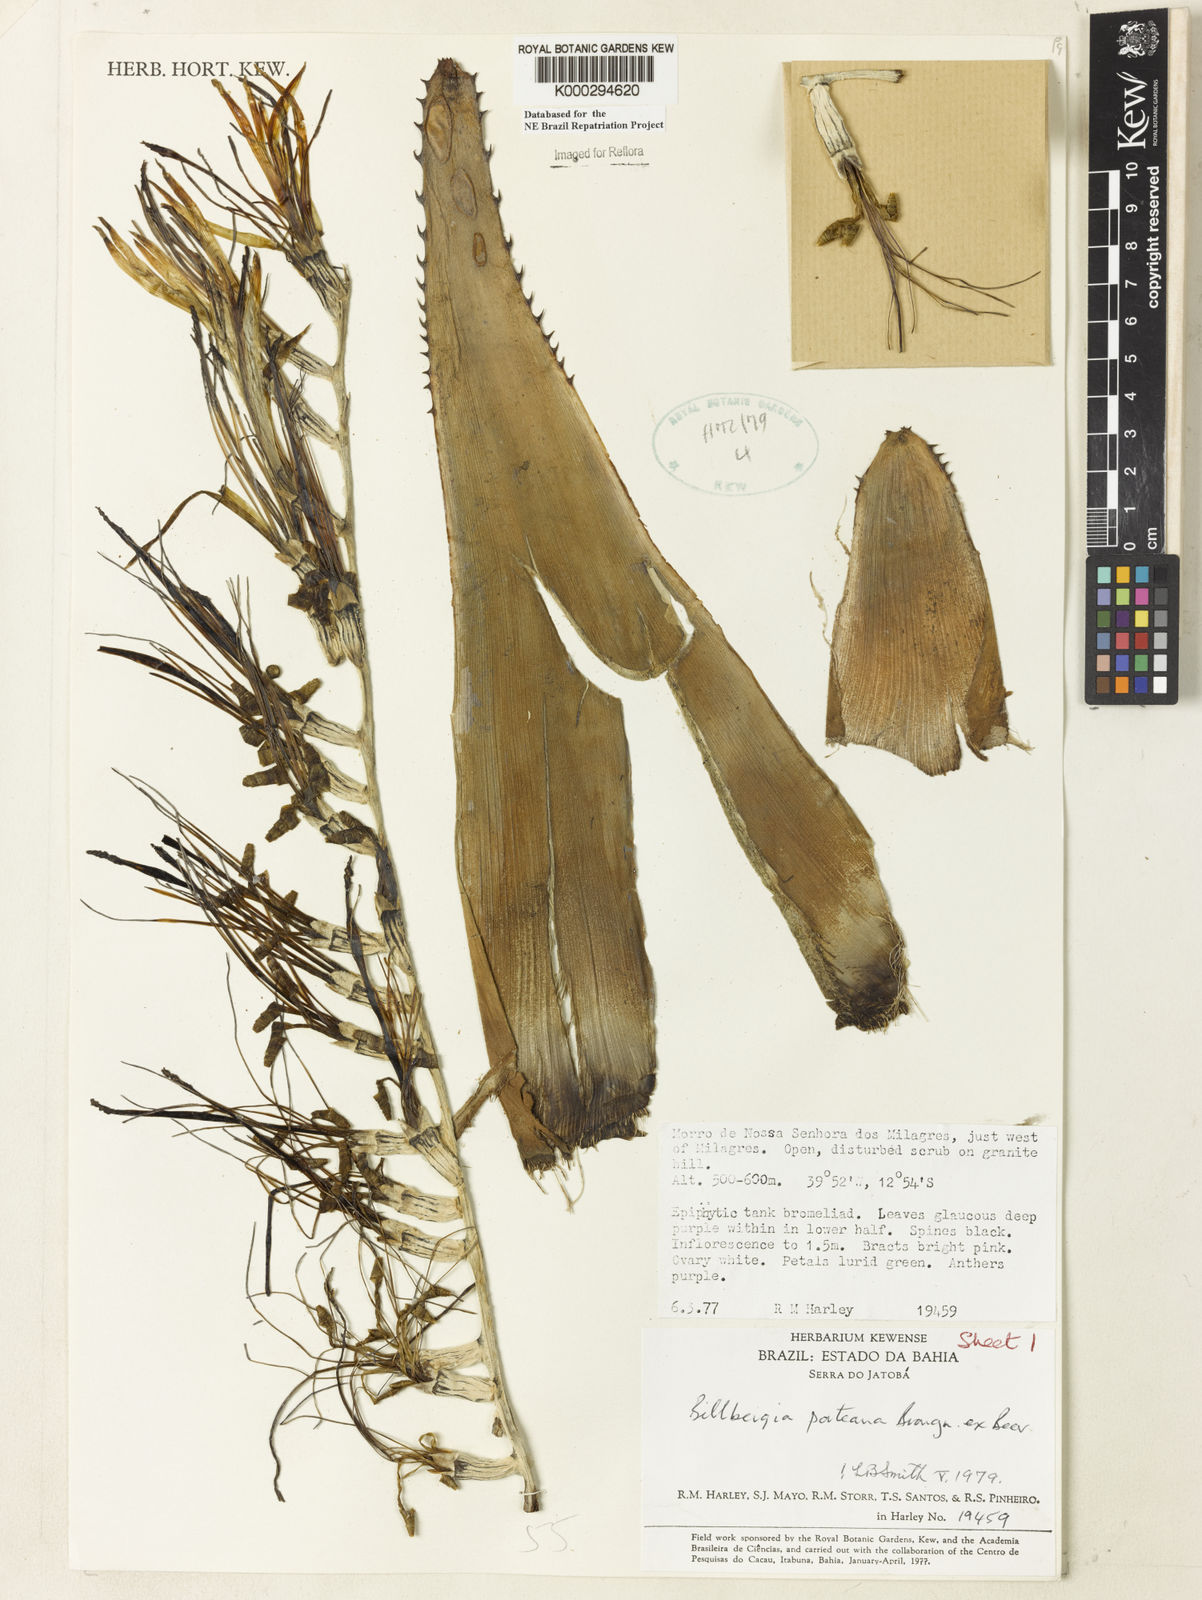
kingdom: Plantae
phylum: Tracheophyta
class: Liliopsida
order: Poales
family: Bromeliaceae
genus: Billbergia
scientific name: Billbergia porteana
